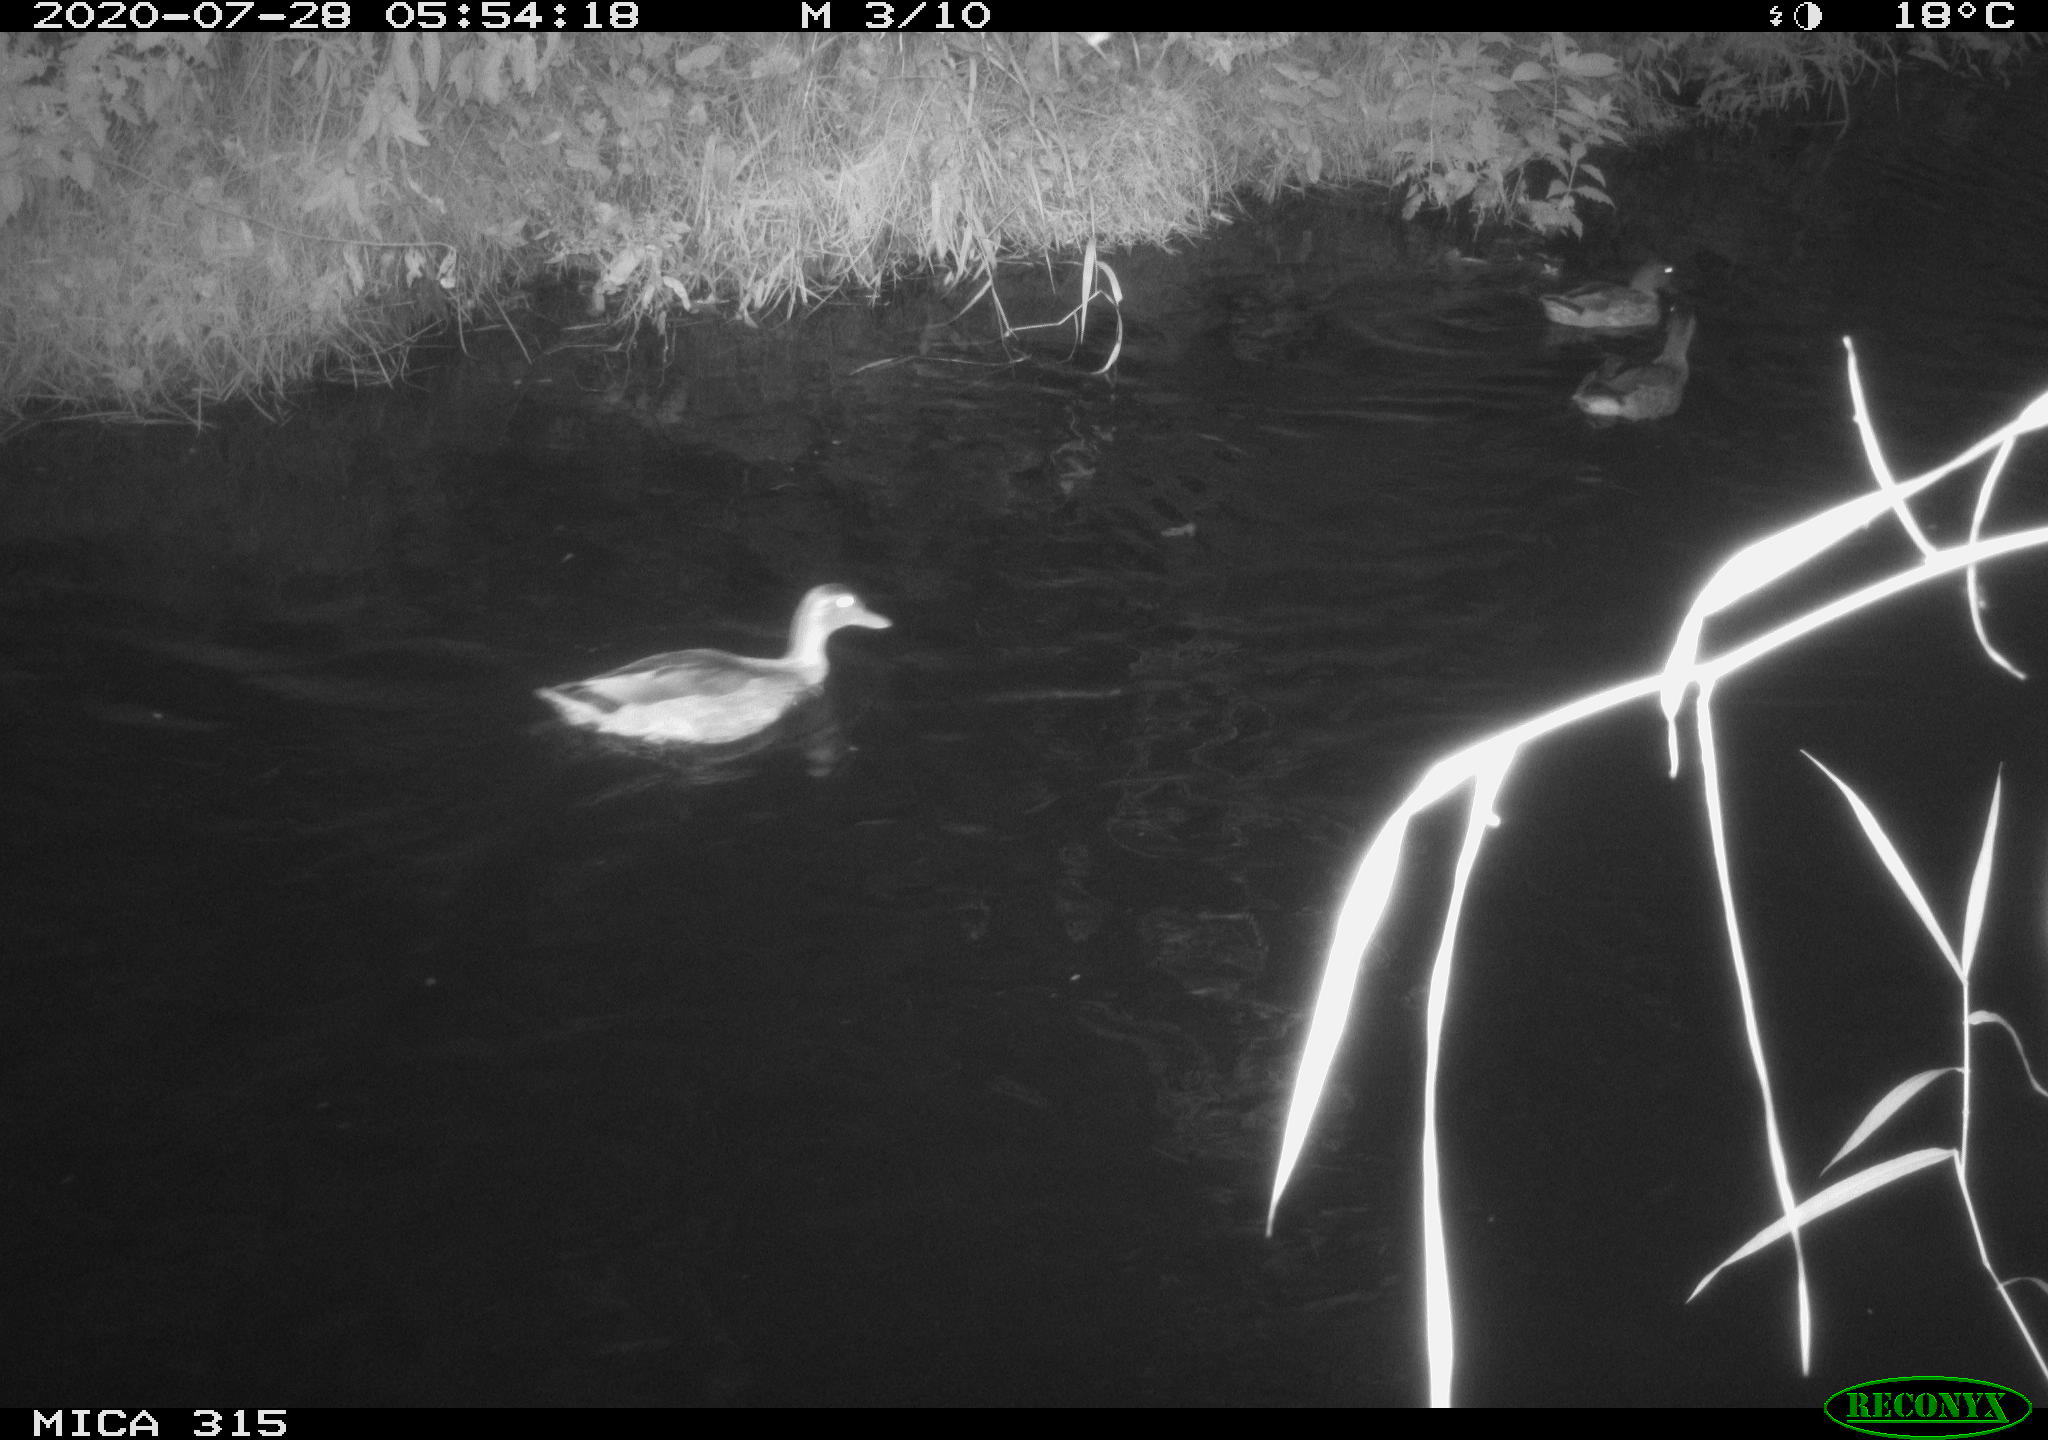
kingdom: Animalia
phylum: Chordata
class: Aves
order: Anseriformes
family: Anatidae
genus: Anas
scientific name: Anas platyrhynchos
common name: Mallard
